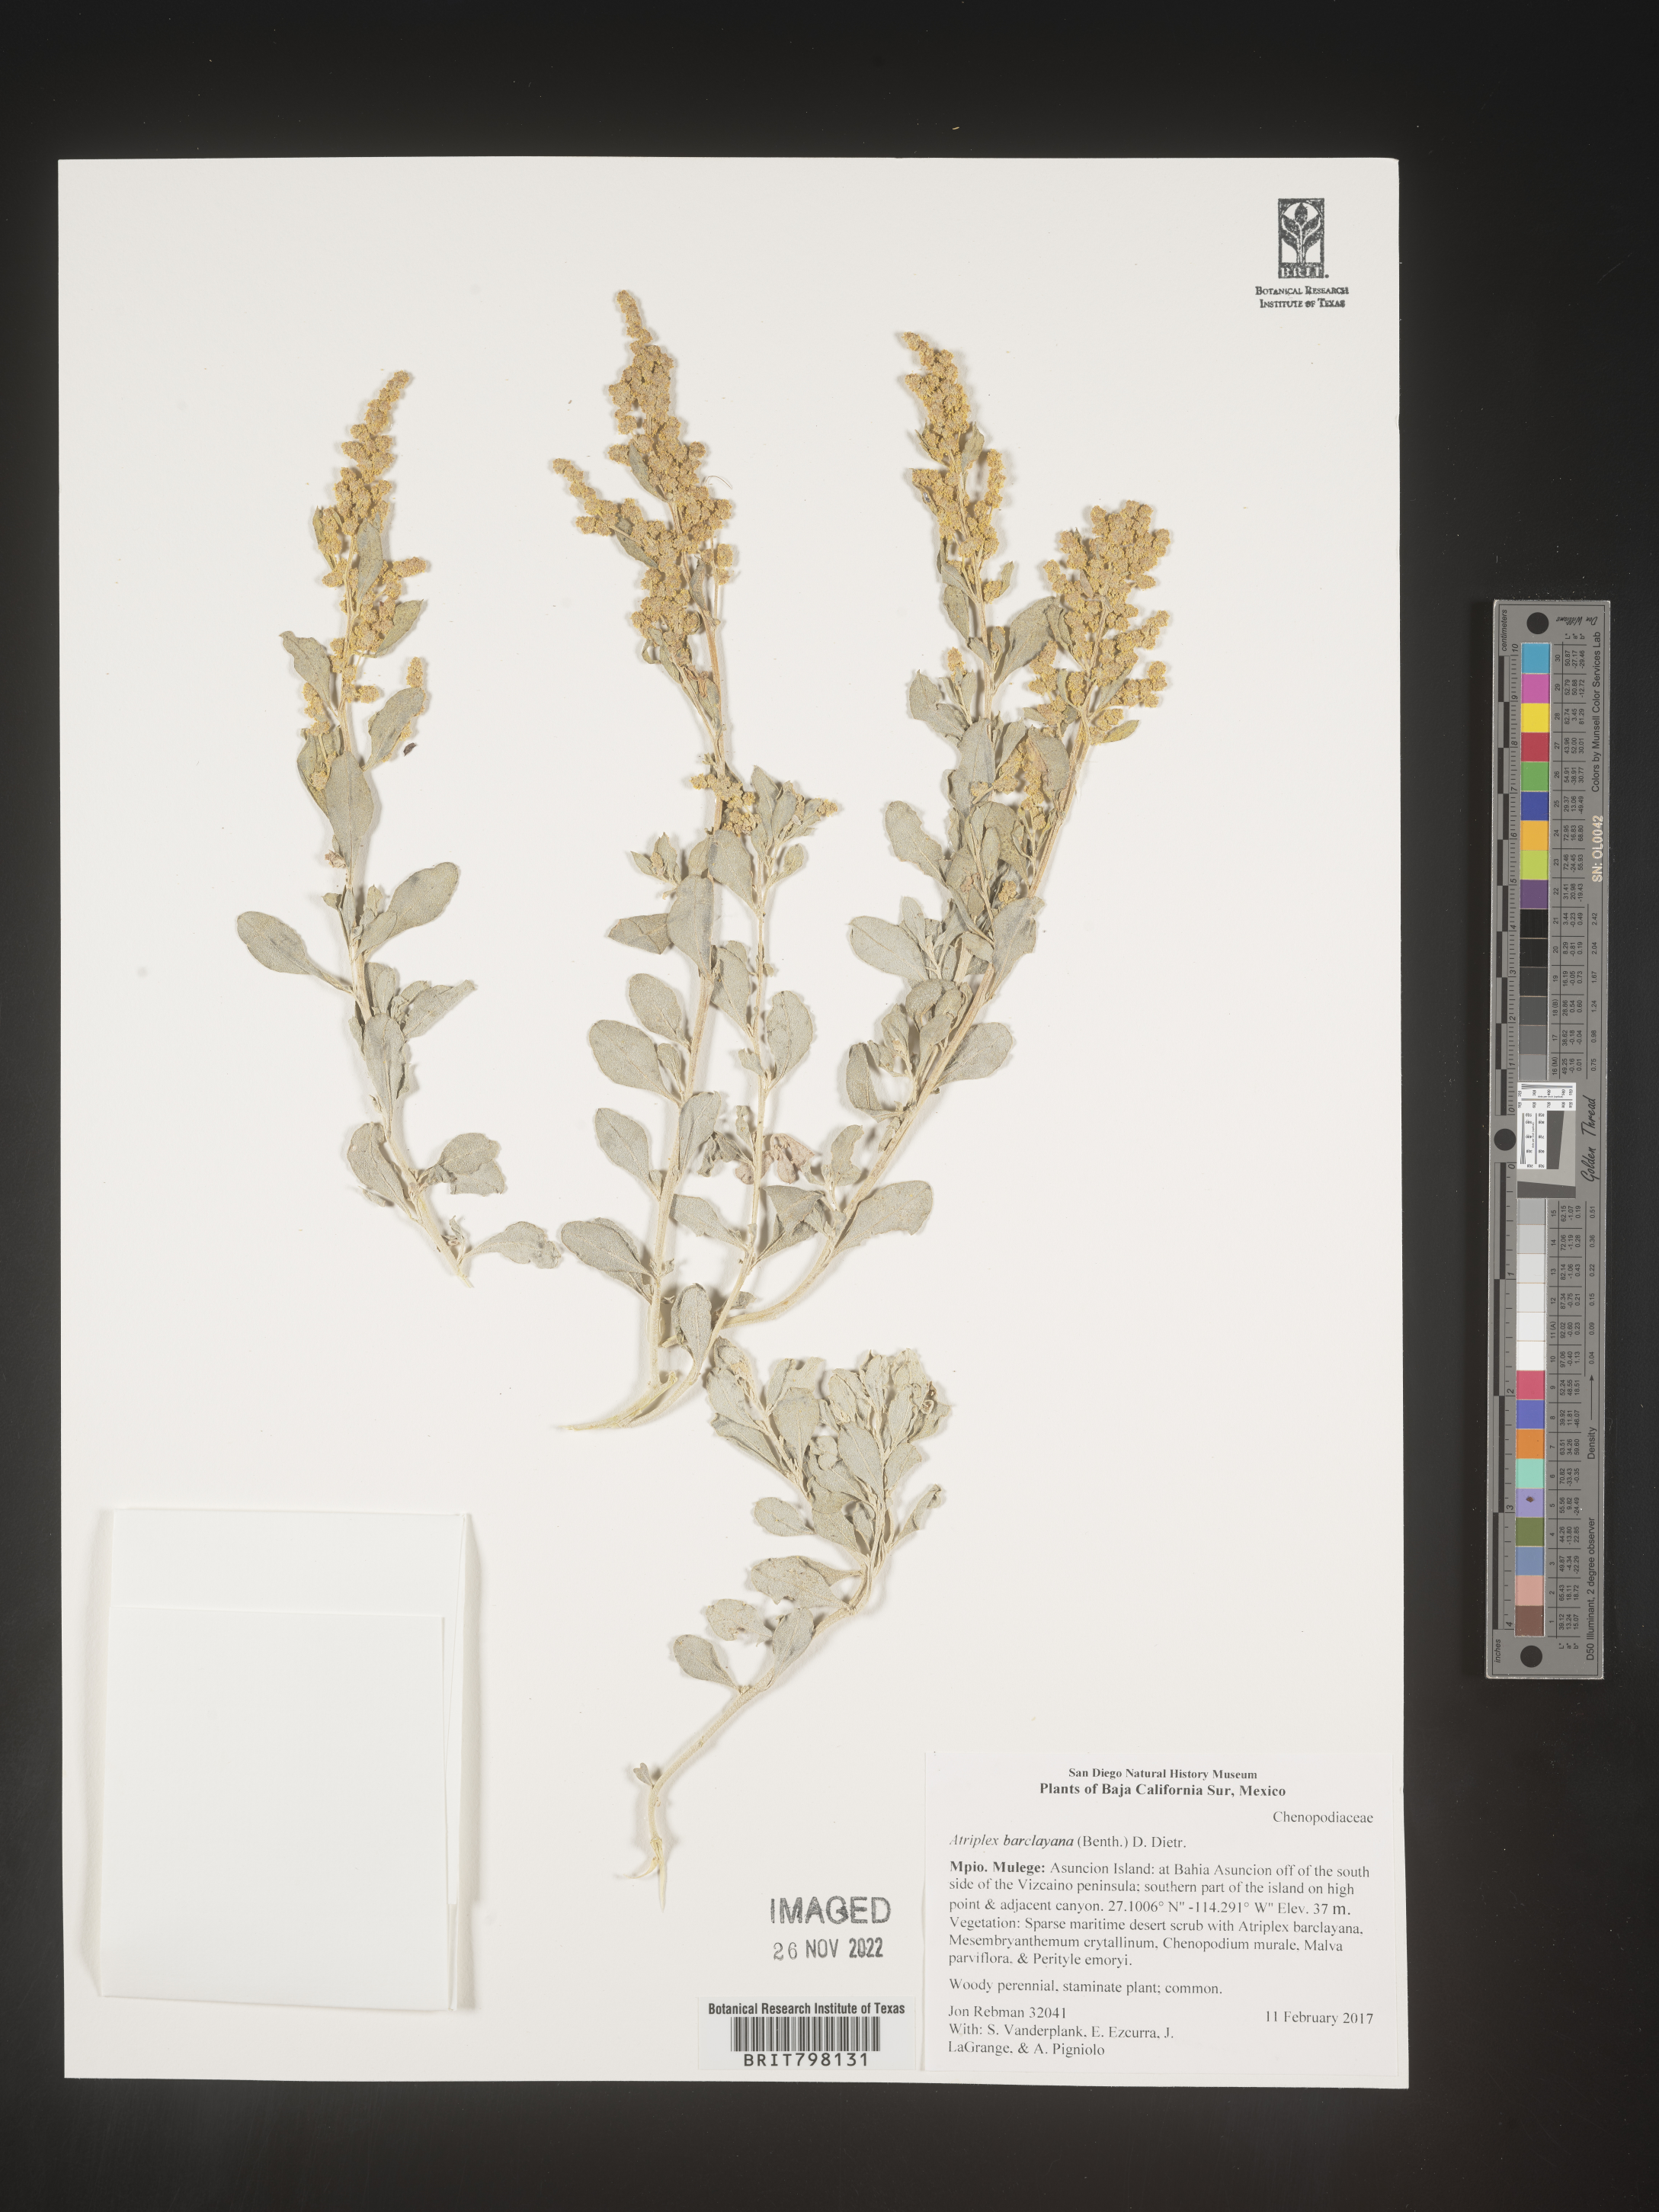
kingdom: Plantae
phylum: Tracheophyta
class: Magnoliopsida
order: Caryophyllales
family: Amaranthaceae
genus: Atriplex
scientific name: Atriplex
